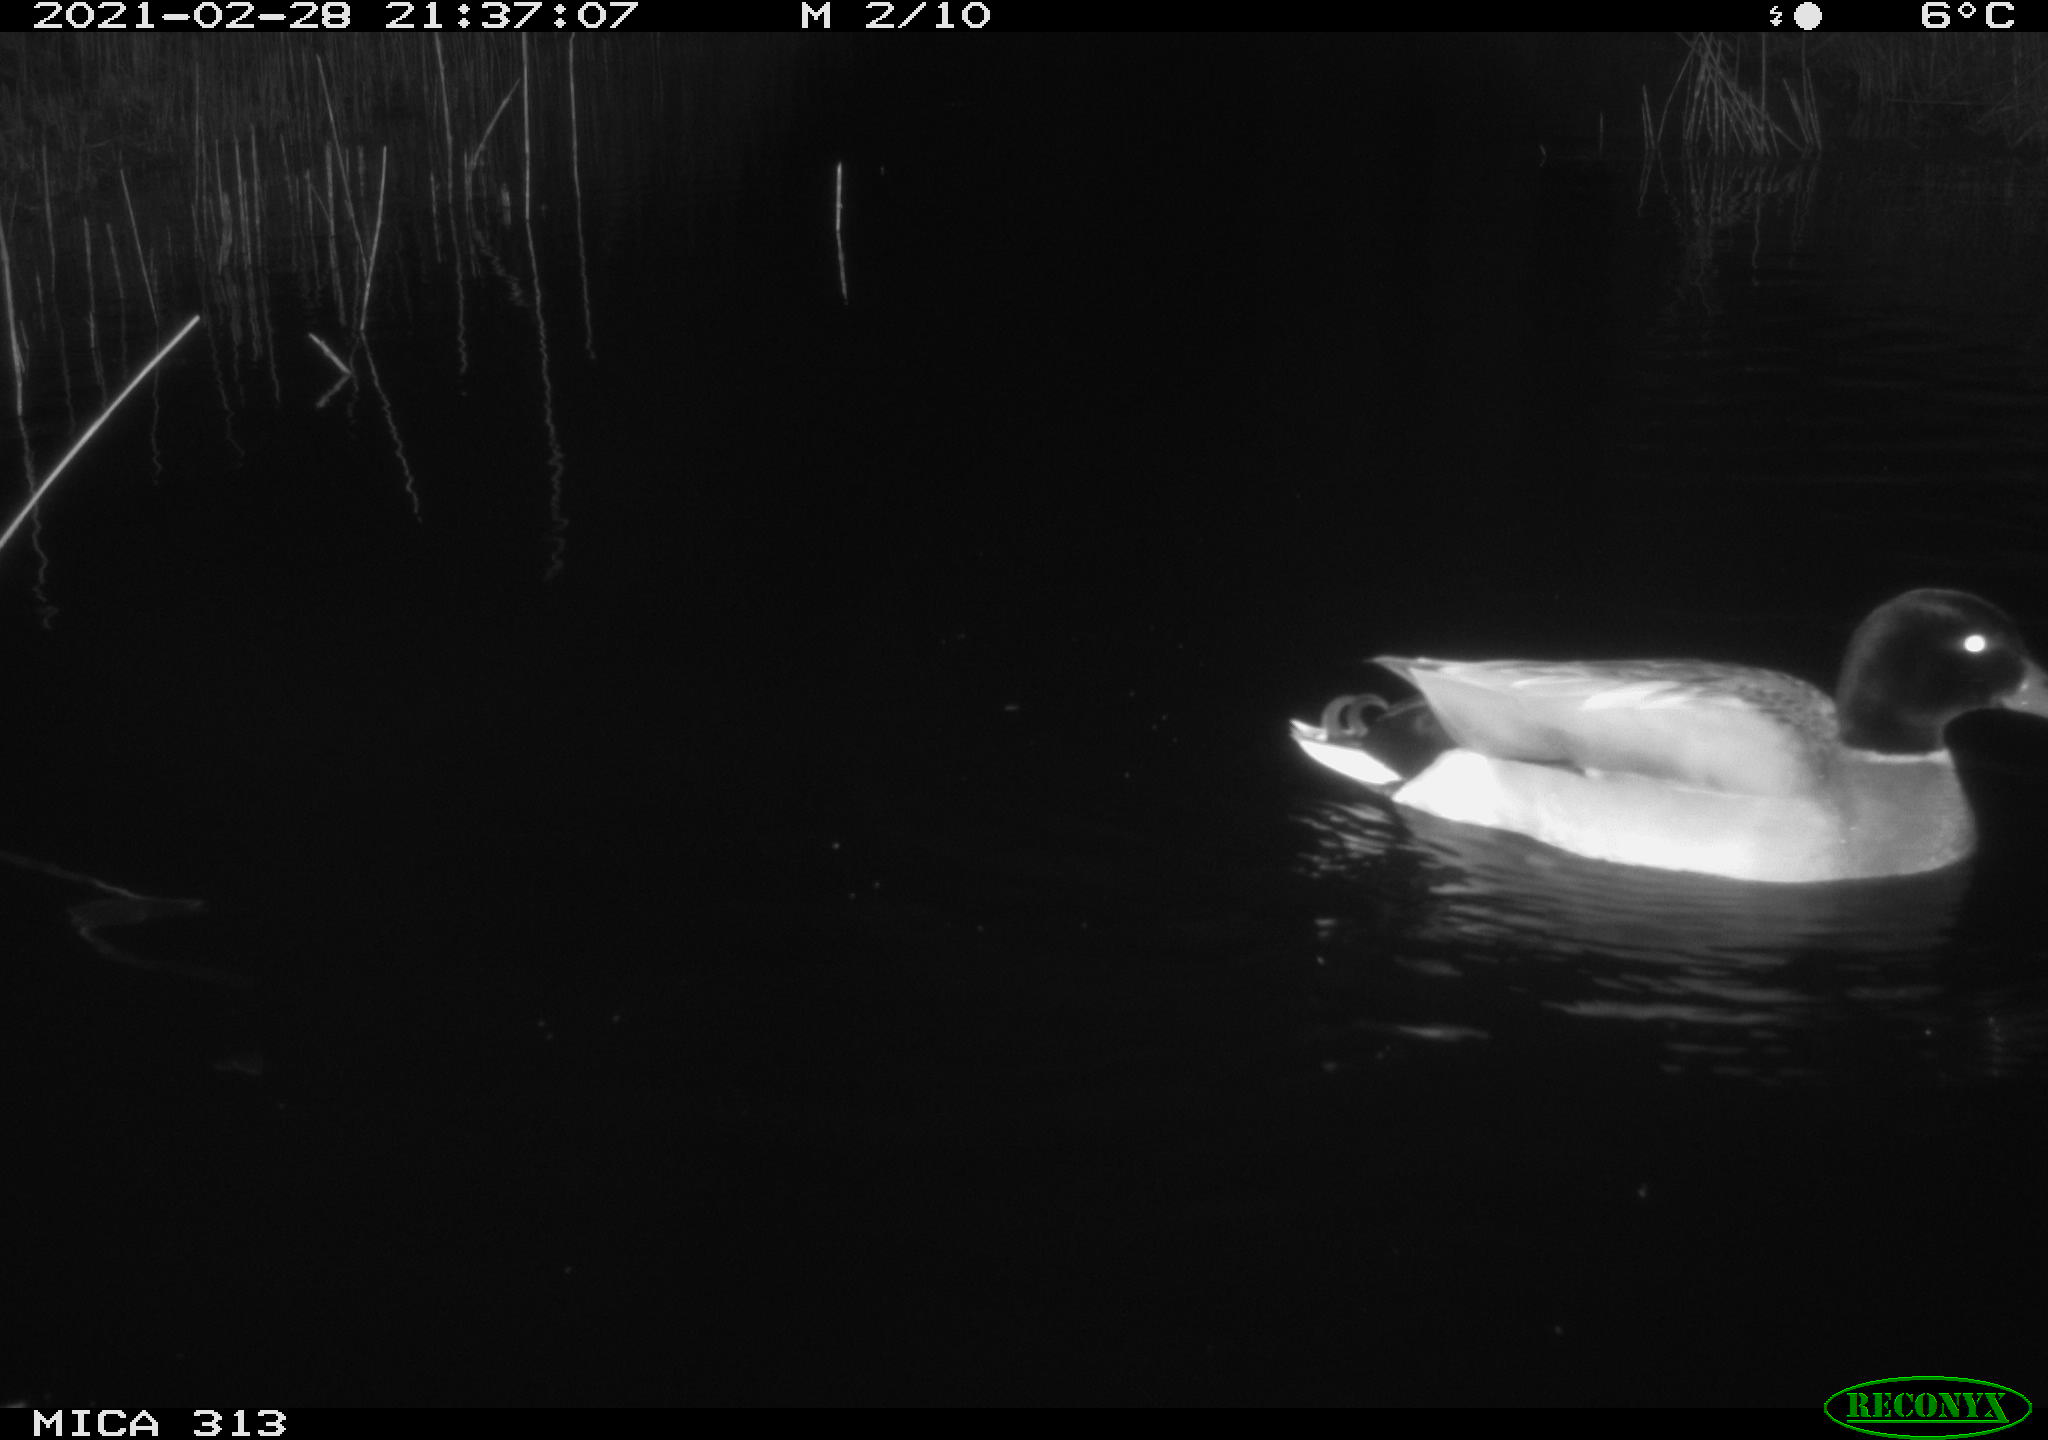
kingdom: Animalia
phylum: Chordata
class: Aves
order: Anseriformes
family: Anatidae
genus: Anas
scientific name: Anas
